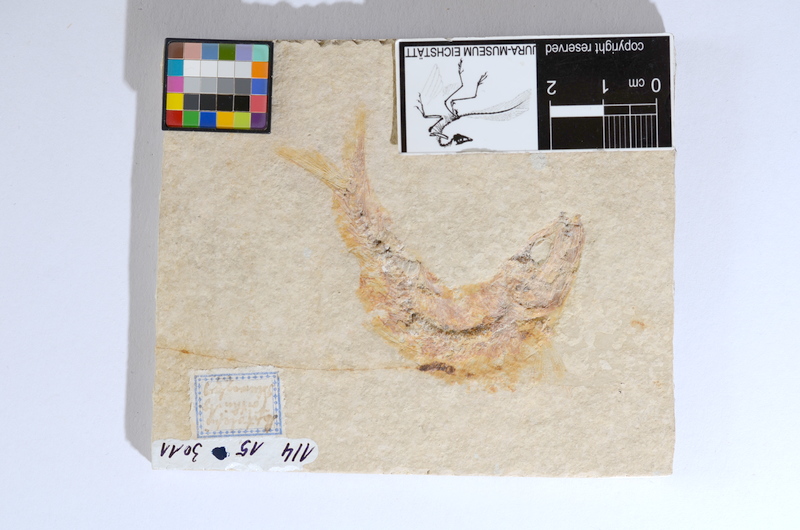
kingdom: Animalia
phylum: Chordata
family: Ascalaboidae
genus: Tharsis
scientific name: Tharsis dubius
